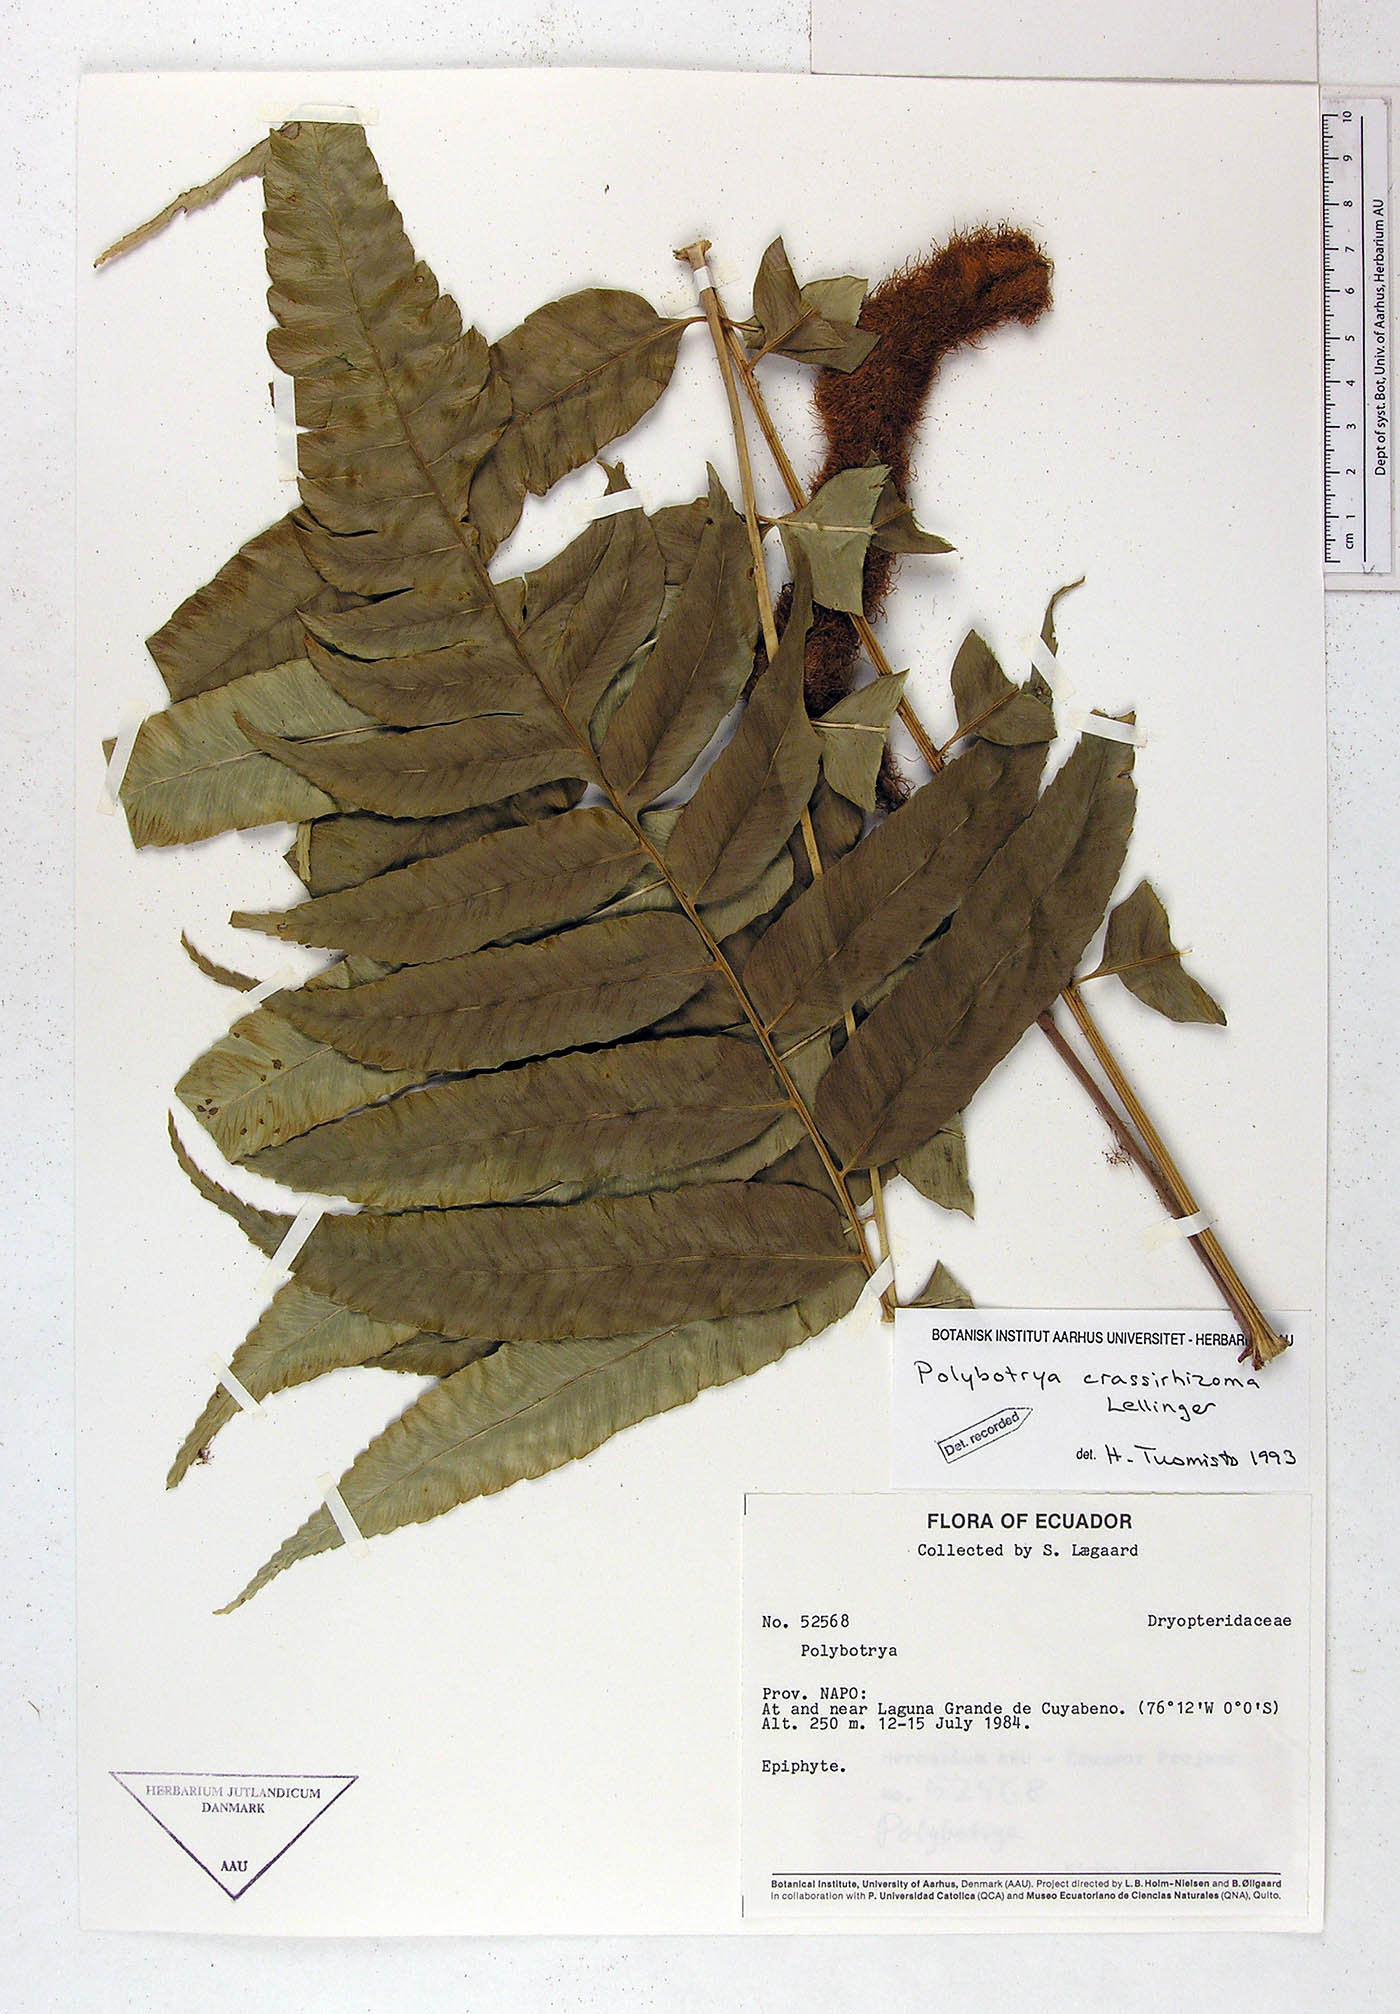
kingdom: Plantae
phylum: Tracheophyta
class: Polypodiopsida
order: Polypodiales
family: Dryopteridaceae
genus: Polybotrya
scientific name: Polybotrya crassirhizoma
